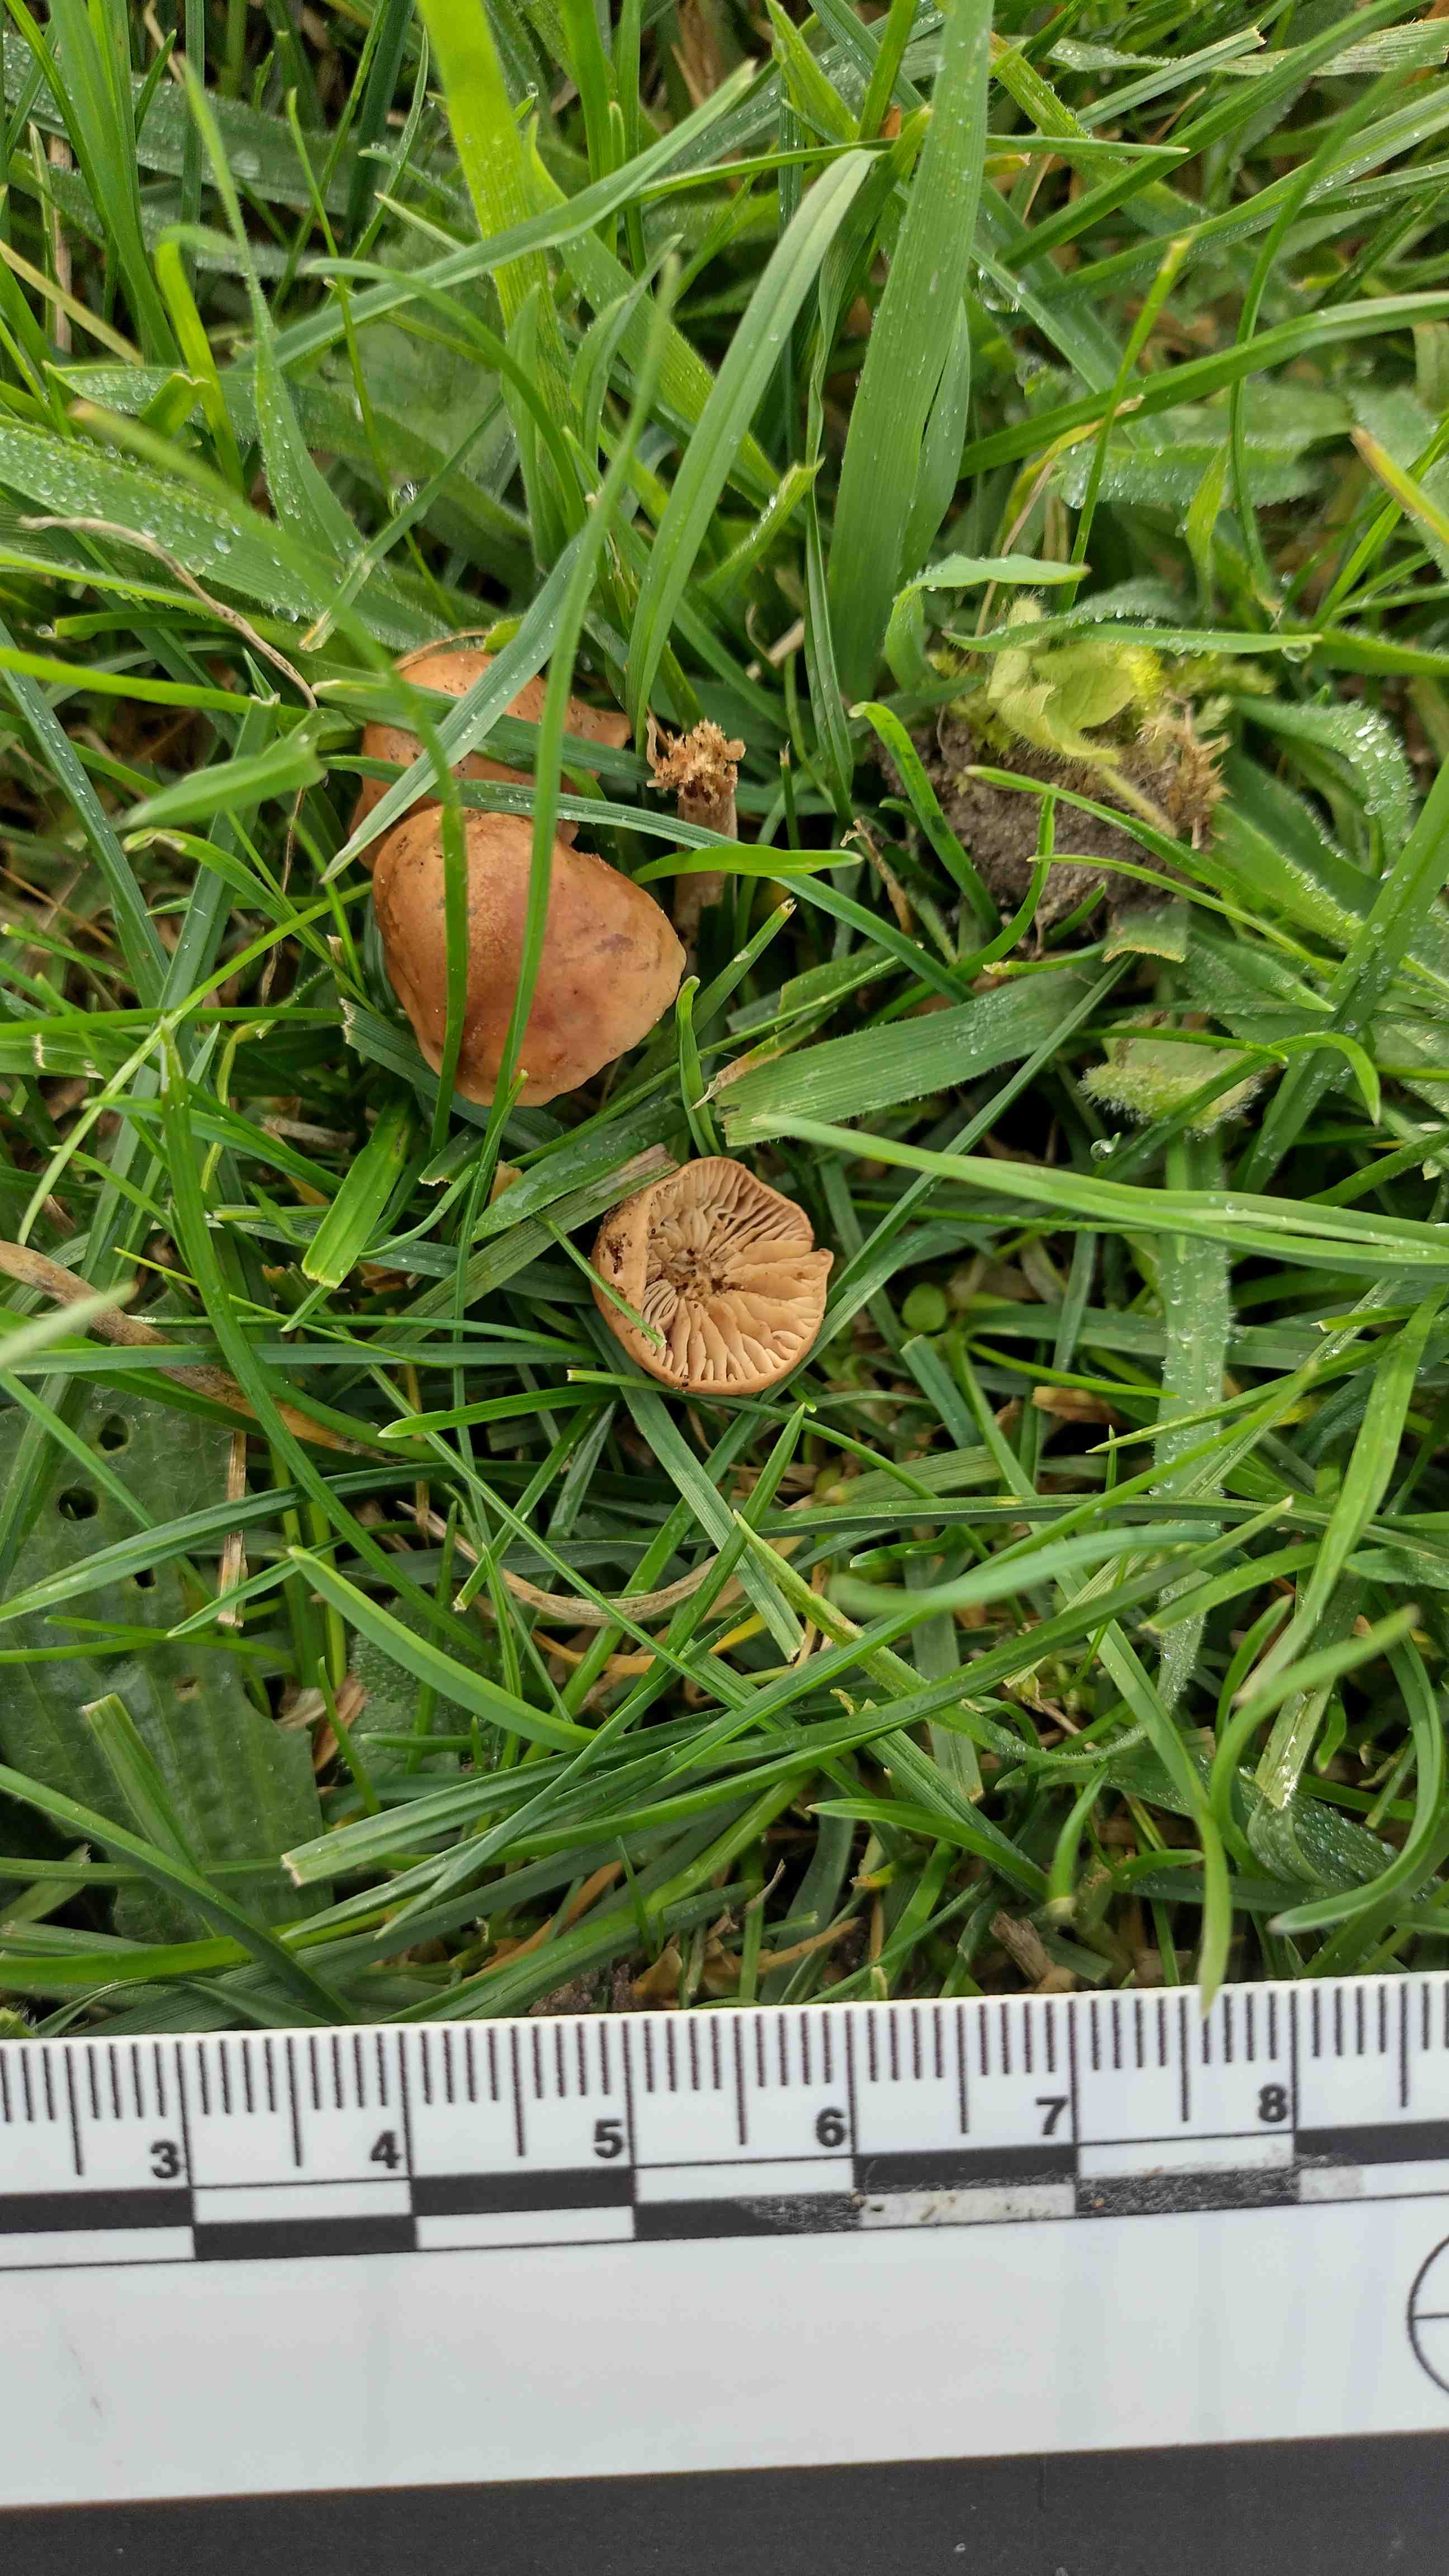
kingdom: Fungi
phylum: Basidiomycota
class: Agaricomycetes
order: Agaricales
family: Marasmiaceae
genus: Marasmius
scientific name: Marasmius oreades
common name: elledans-bruskhat
